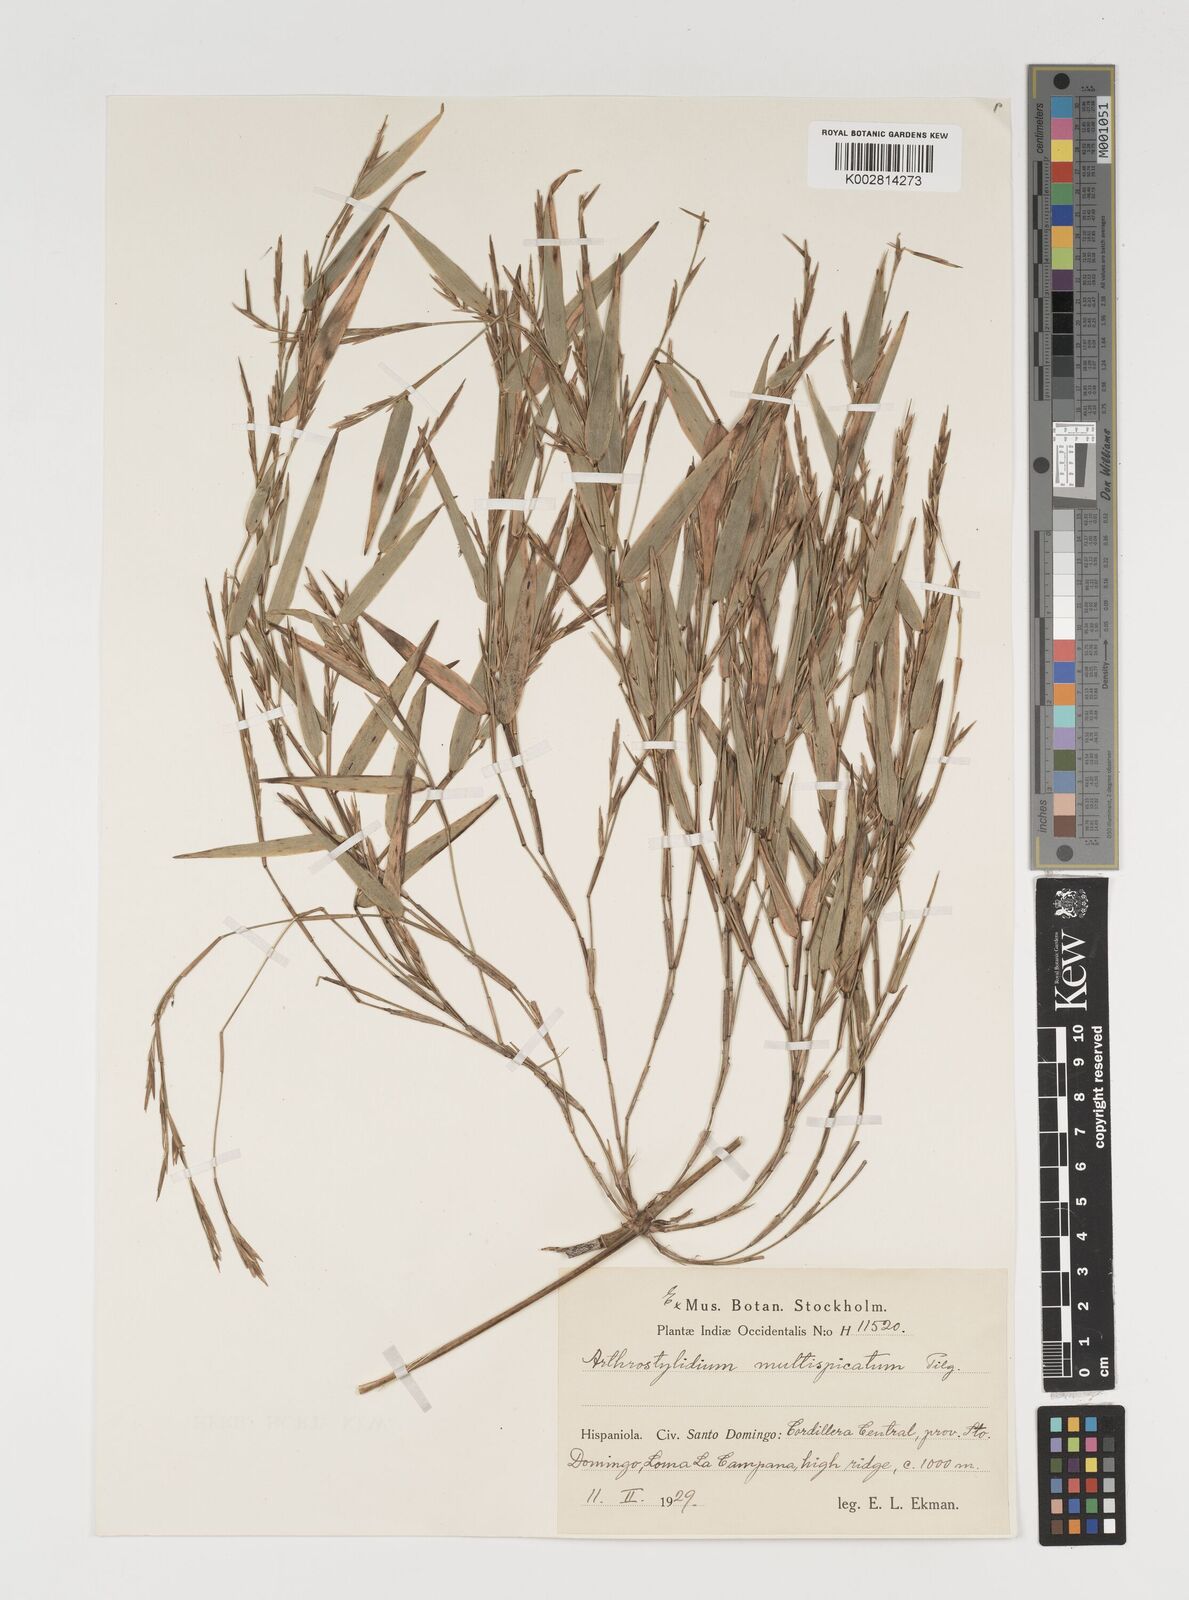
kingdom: Plantae
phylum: Tracheophyta
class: Liliopsida
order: Poales
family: Poaceae
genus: Arthrostylidium
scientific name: Arthrostylidium multispicatum
